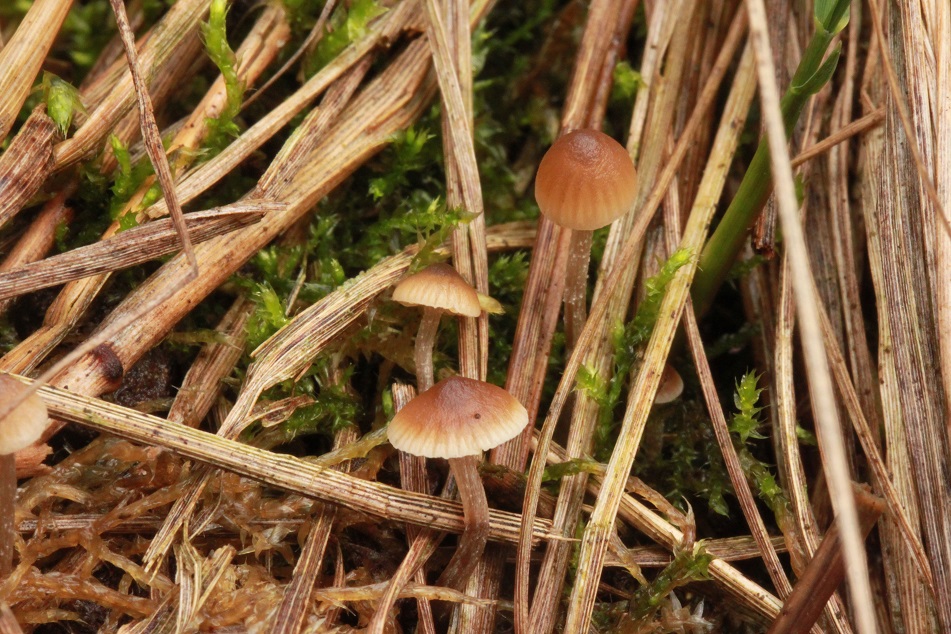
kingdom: Fungi
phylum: Basidiomycota
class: Agaricomycetes
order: Agaricales
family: Lyophyllaceae
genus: Sagaranella
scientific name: Sagaranella tylicolor
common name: kvælstof-gråblad
